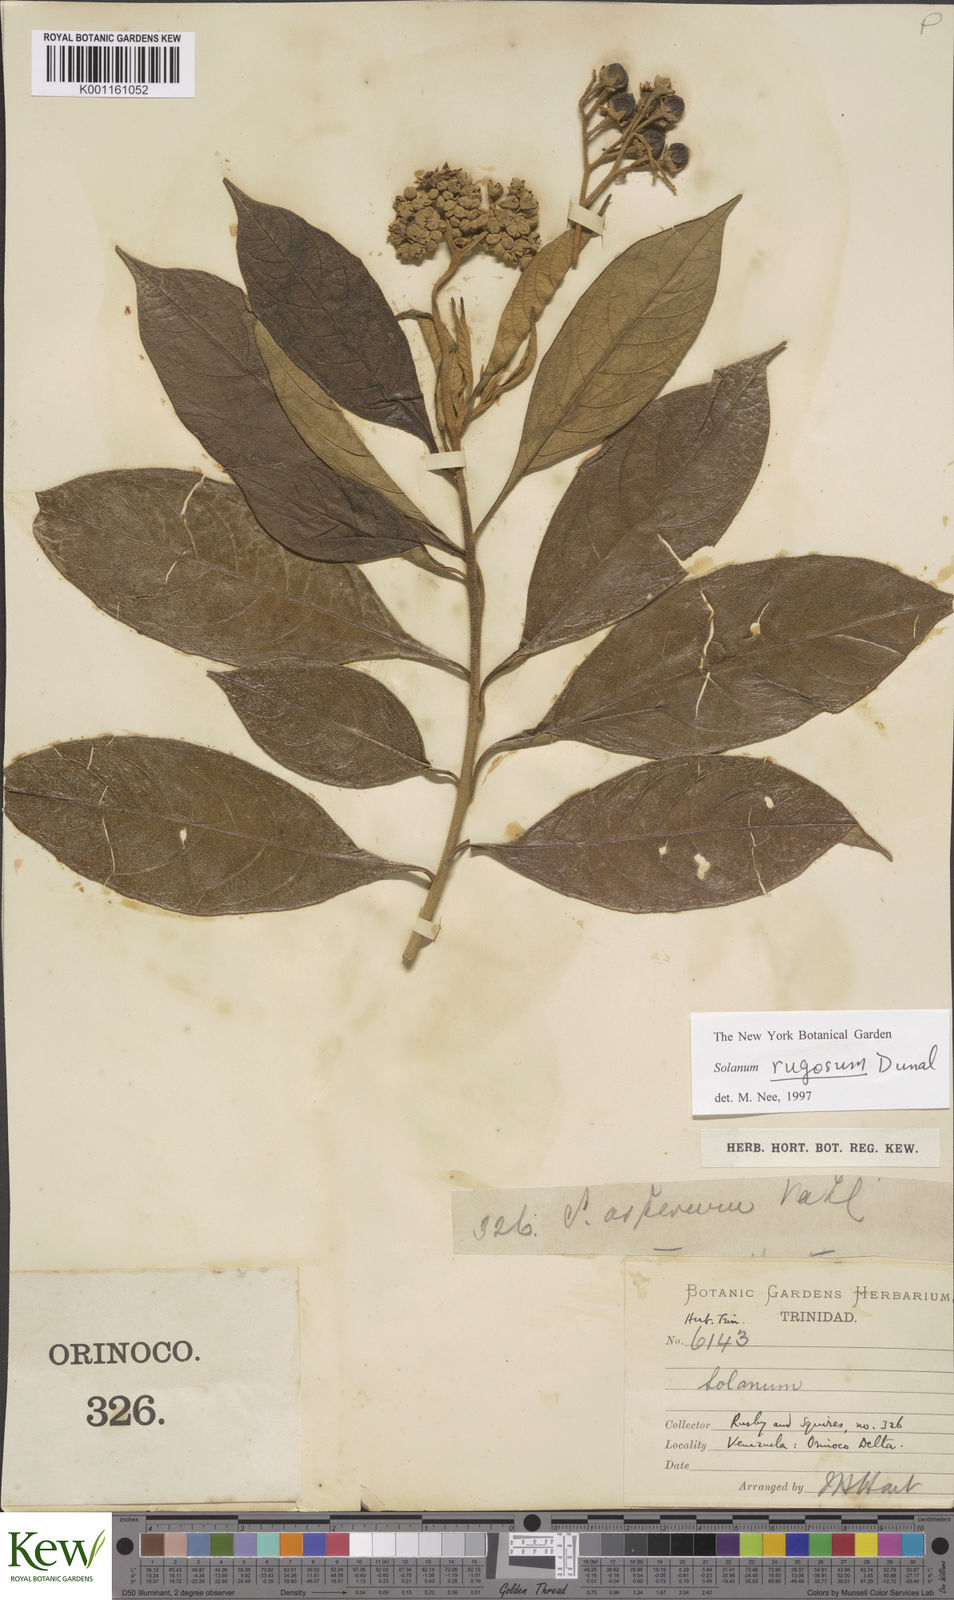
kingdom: Plantae
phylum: Tracheophyta
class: Magnoliopsida
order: Solanales
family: Solanaceae
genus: Solanum
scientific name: Solanum rugosum
